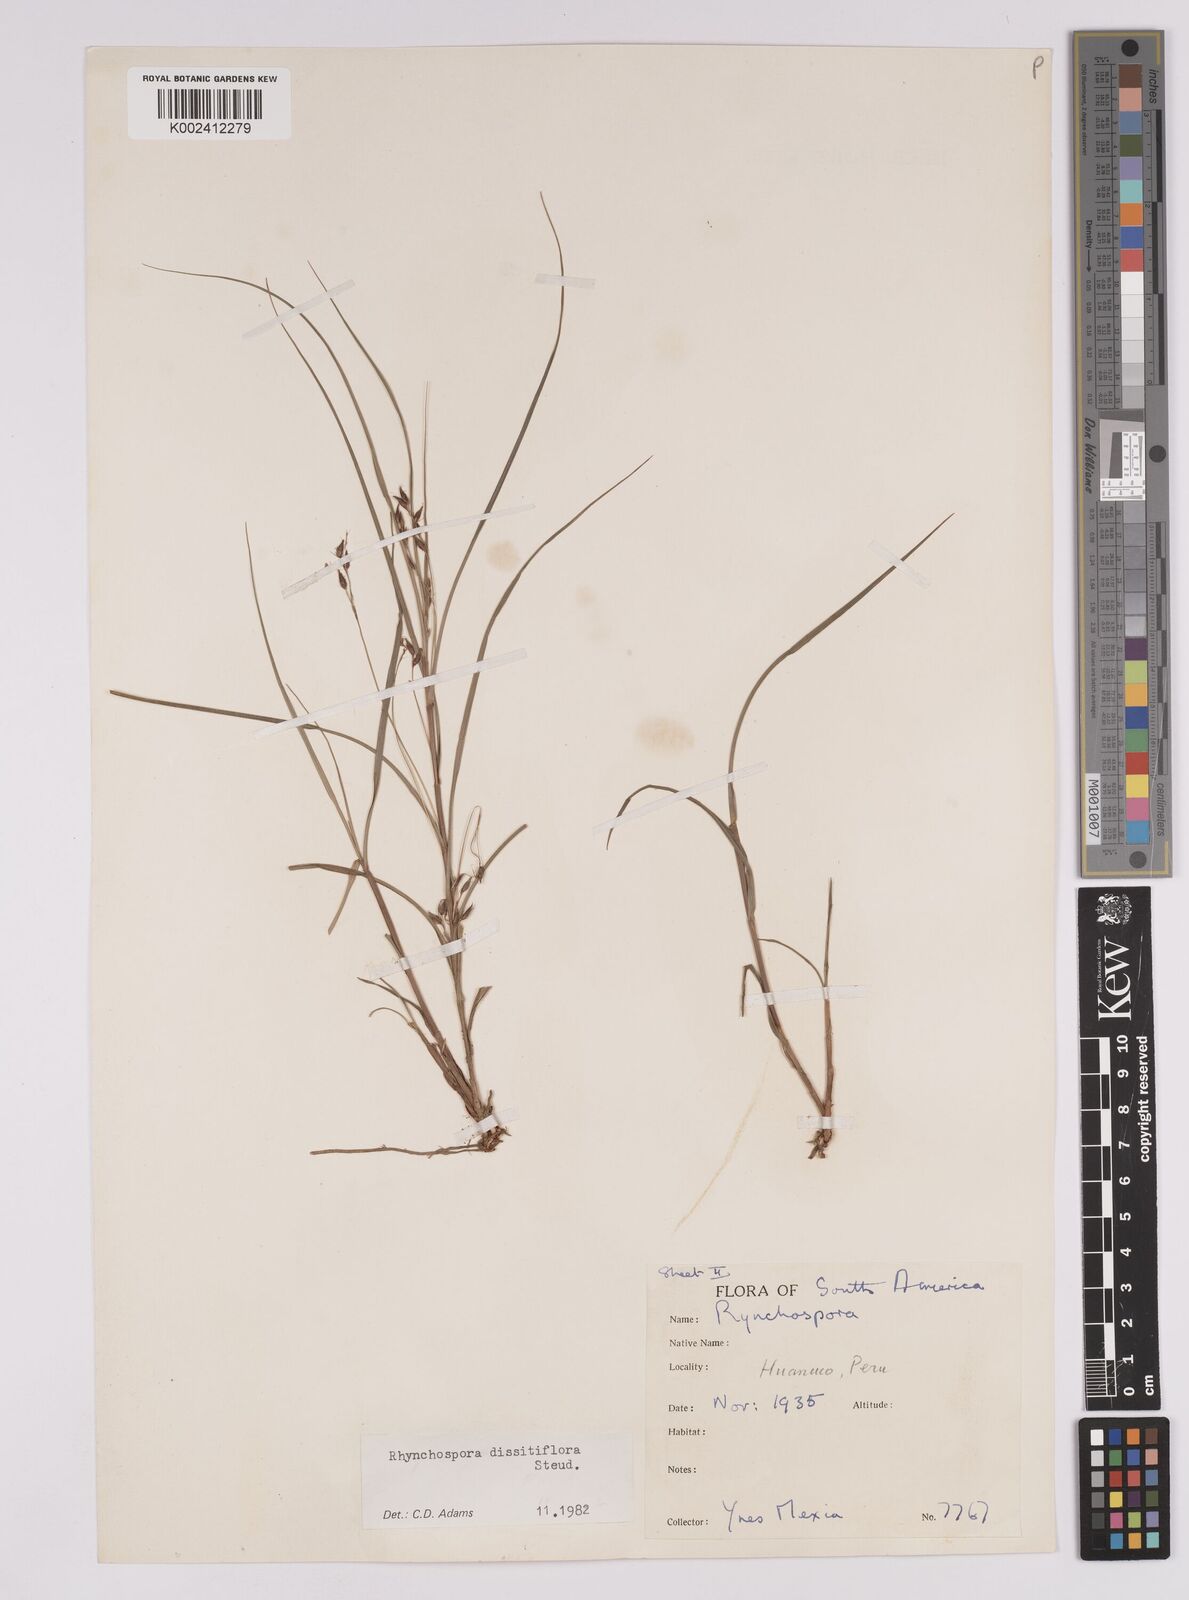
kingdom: Plantae
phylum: Tracheophyta
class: Liliopsida
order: Poales
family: Cyperaceae
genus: Rhynchospora
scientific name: Rhynchospora dissitiflora
